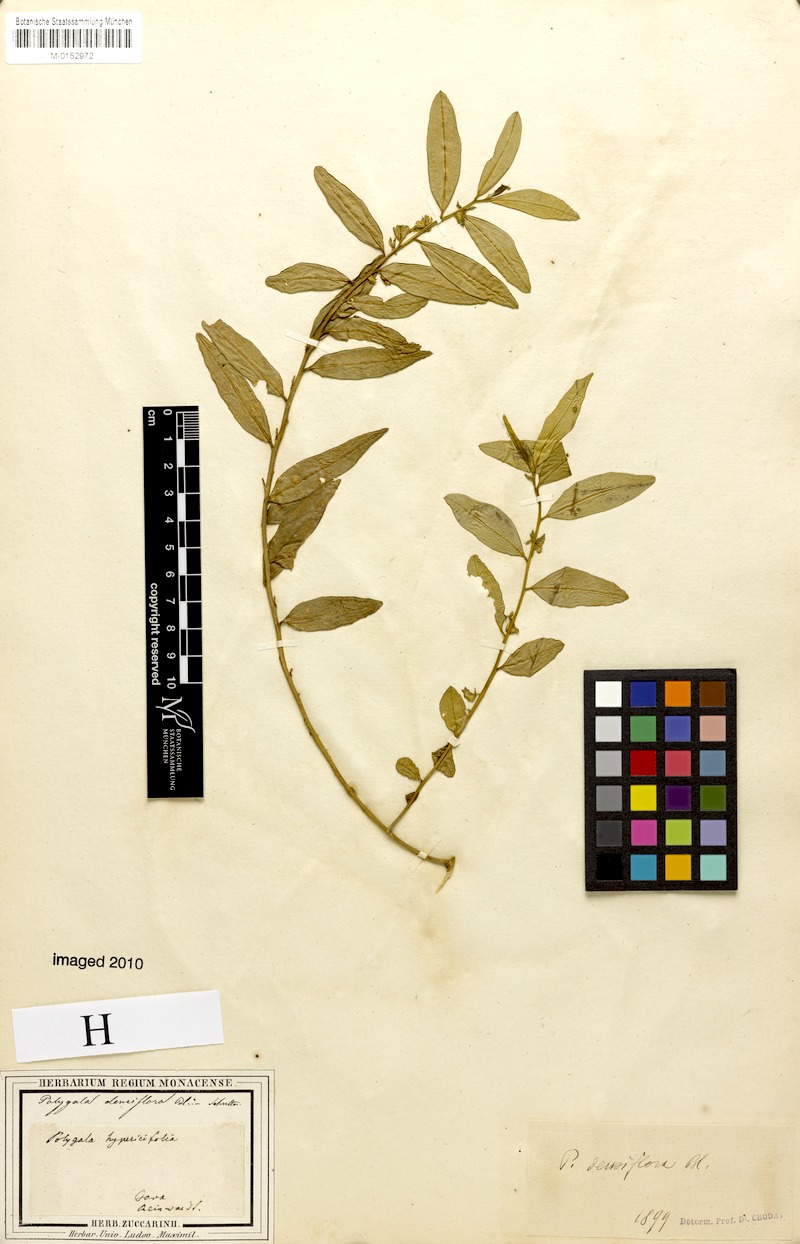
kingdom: Plantae
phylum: Tracheophyta
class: Magnoliopsida
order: Fabales
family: Polygalaceae
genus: Polygala
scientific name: Polygala glomerata
